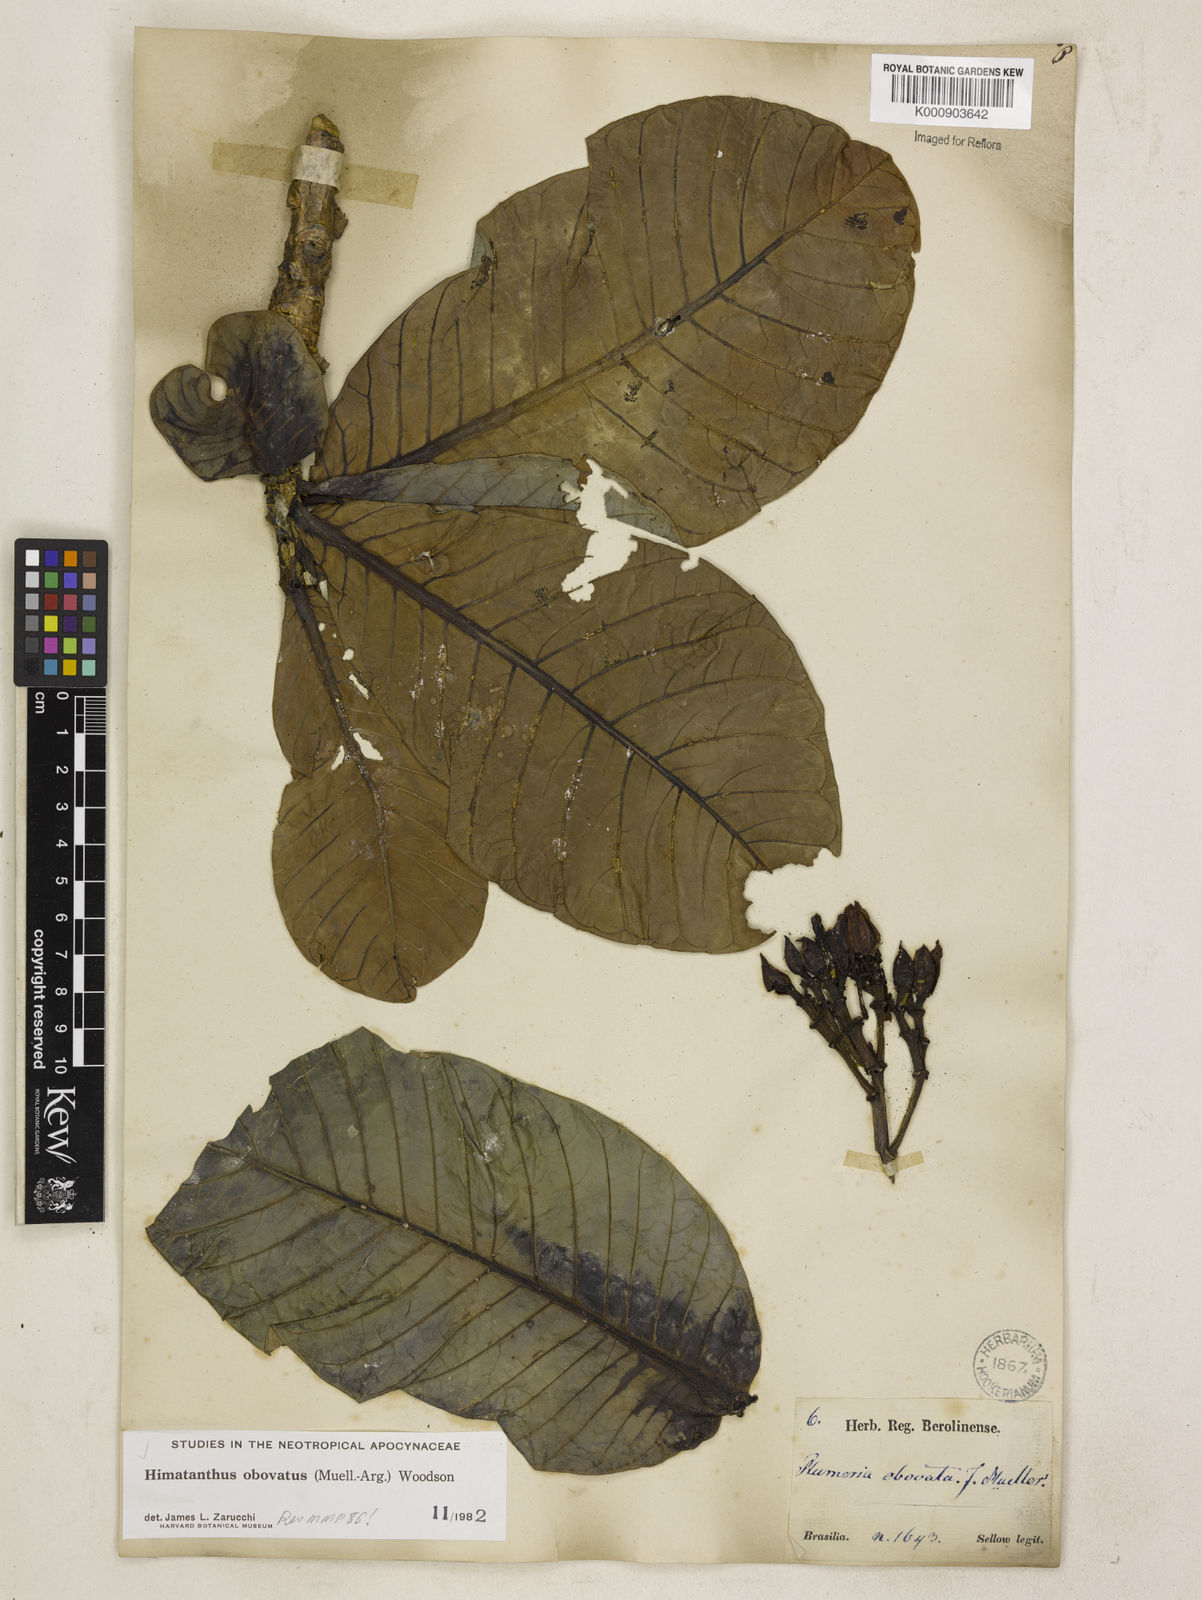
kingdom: Plantae
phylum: Tracheophyta
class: Magnoliopsida
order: Gentianales
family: Apocynaceae
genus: Himatanthus
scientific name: Himatanthus
